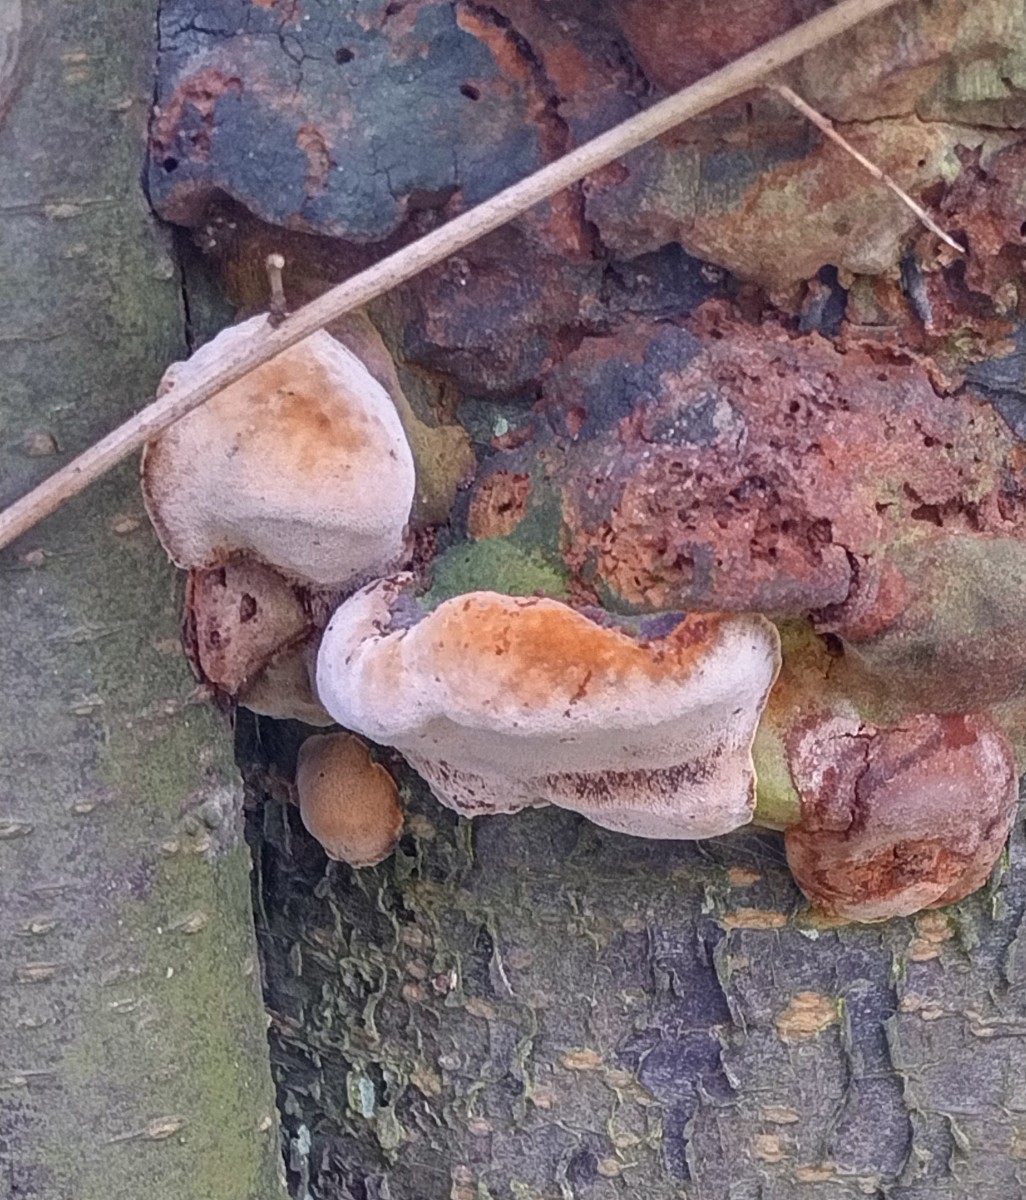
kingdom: Fungi
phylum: Basidiomycota
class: Agaricomycetes
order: Hymenochaetales
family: Hymenochaetaceae
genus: Phellinus
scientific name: Phellinus pomaceus
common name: blomme-ildporesvamp
